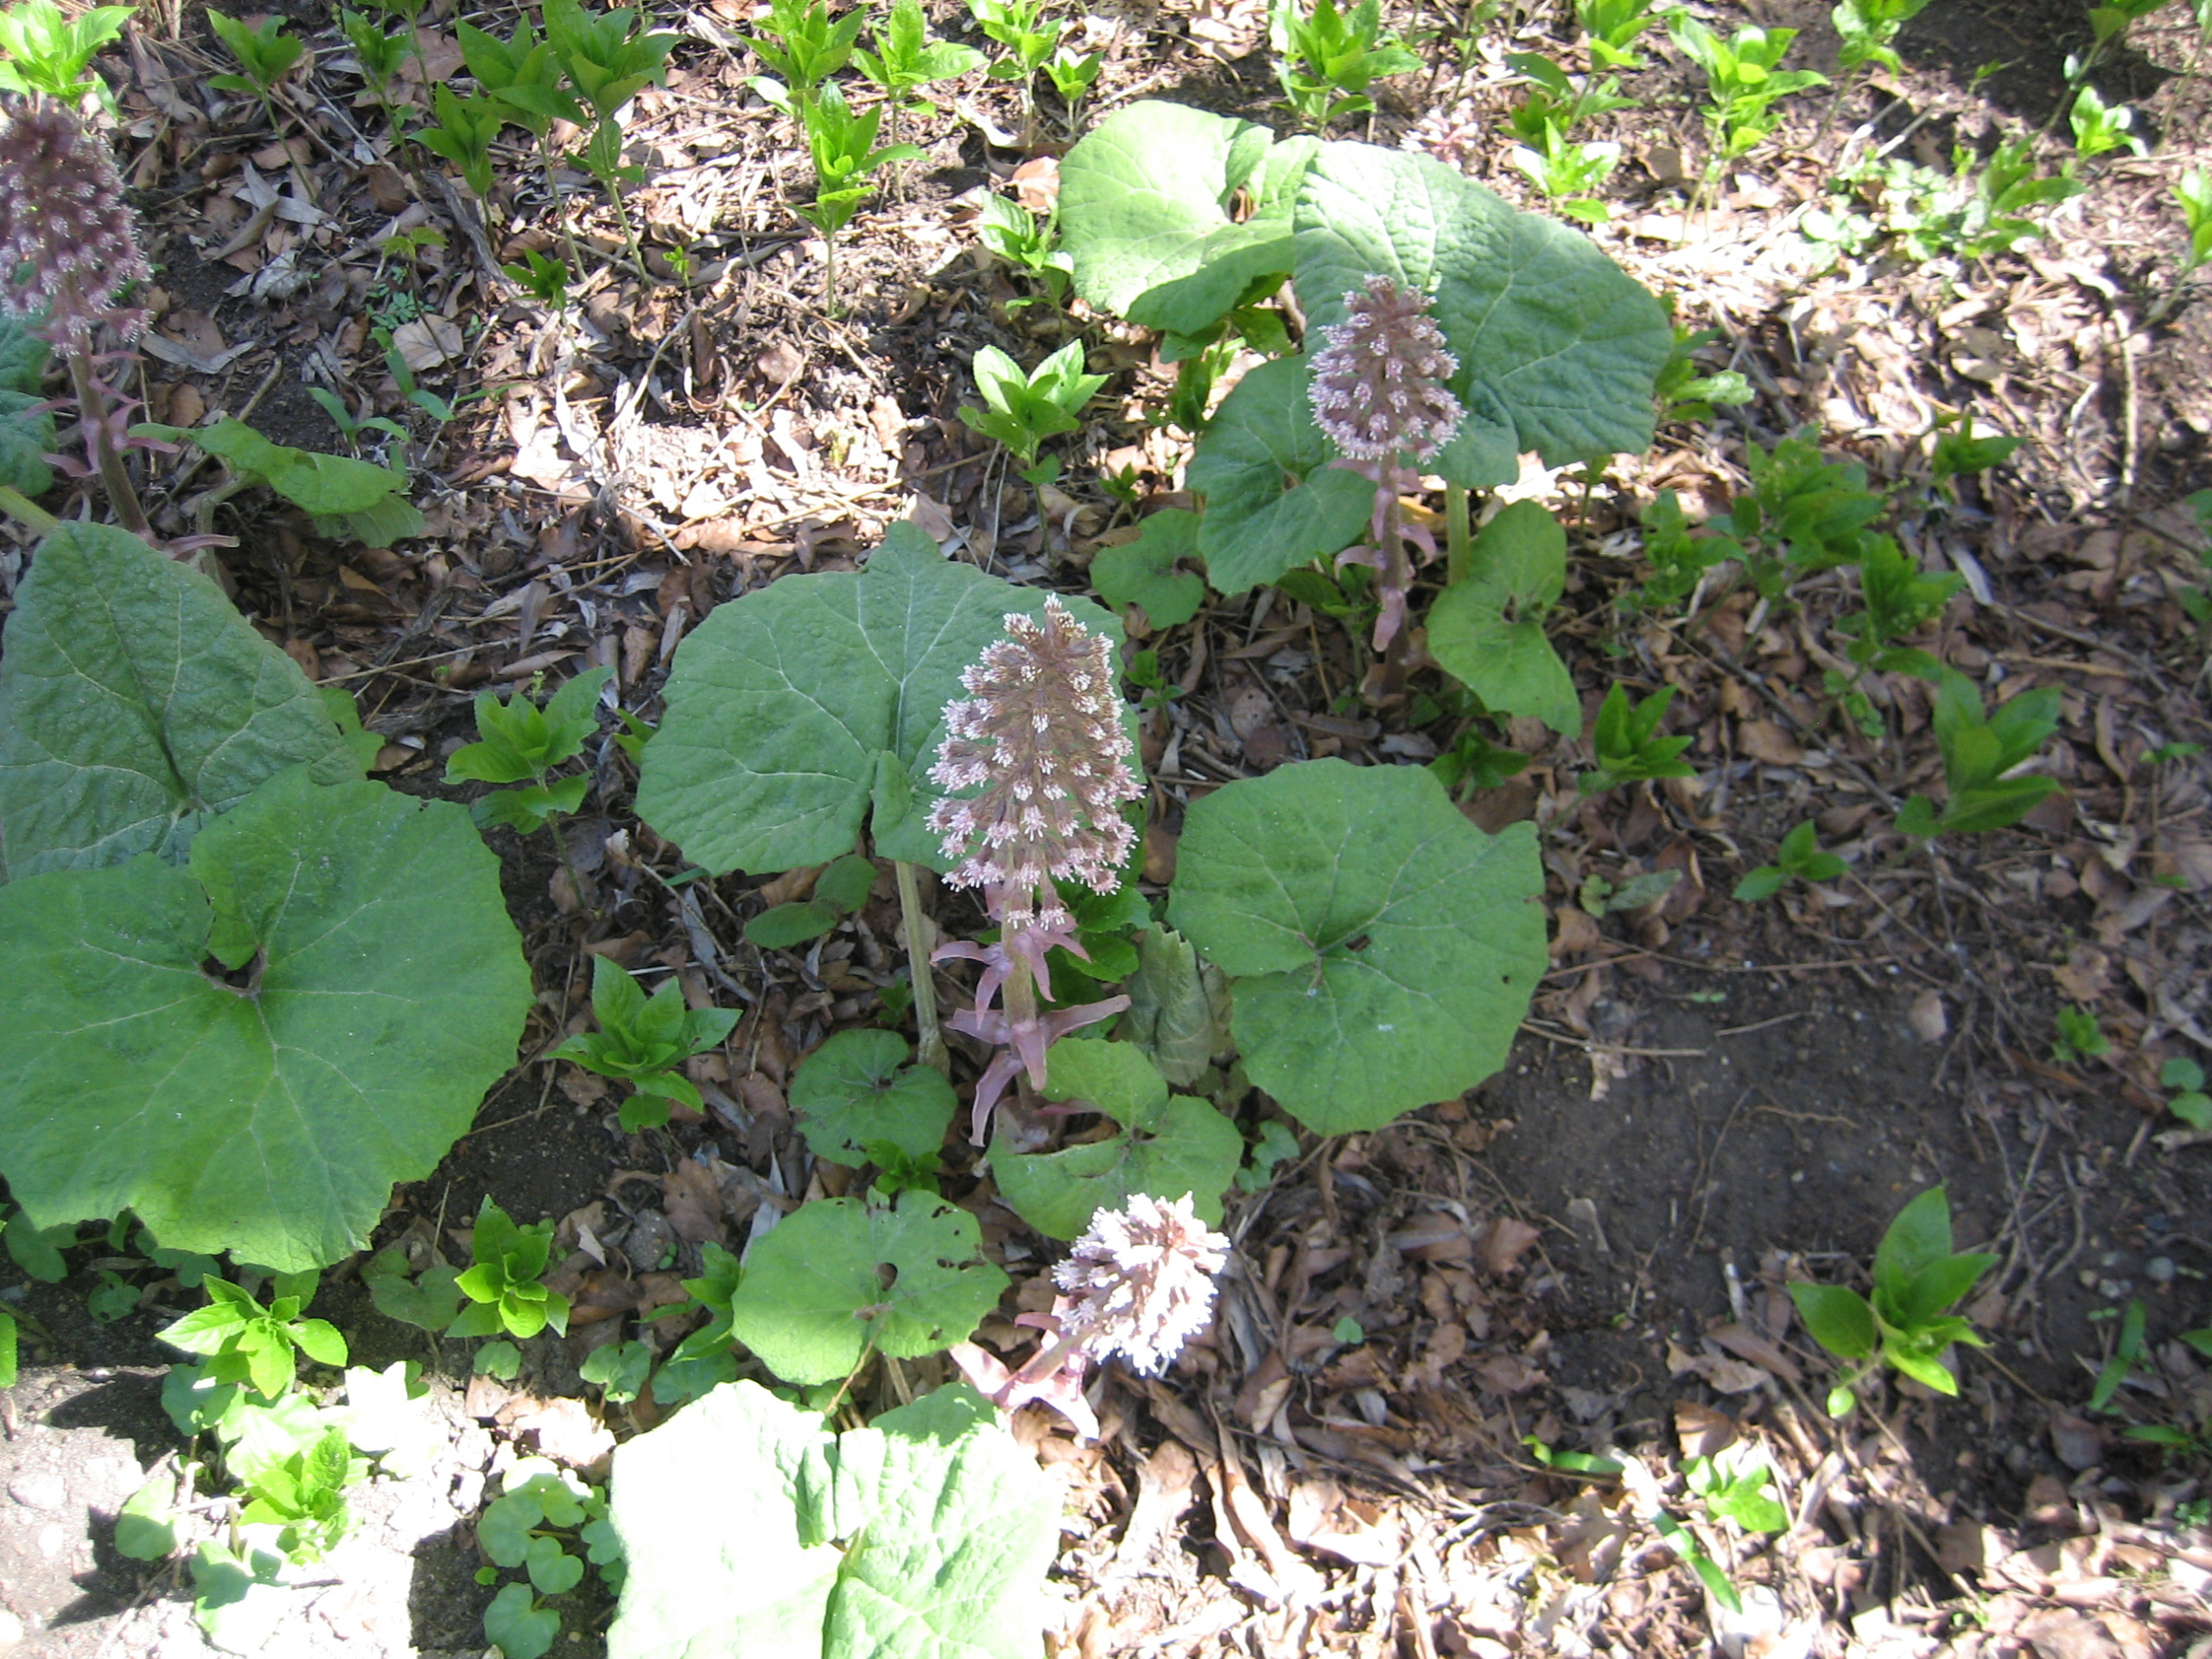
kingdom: Plantae
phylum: Tracheophyta
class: Magnoliopsida
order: Asterales
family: Asteraceae
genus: Petasites
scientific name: Petasites hybridus
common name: Rød hestehov
